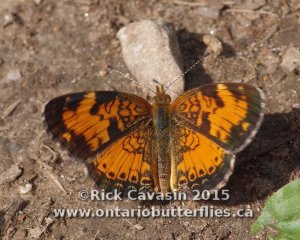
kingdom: Animalia
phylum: Arthropoda
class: Insecta
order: Lepidoptera
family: Nymphalidae
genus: Phyciodes
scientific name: Phyciodes tharos
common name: Northern Crescent
